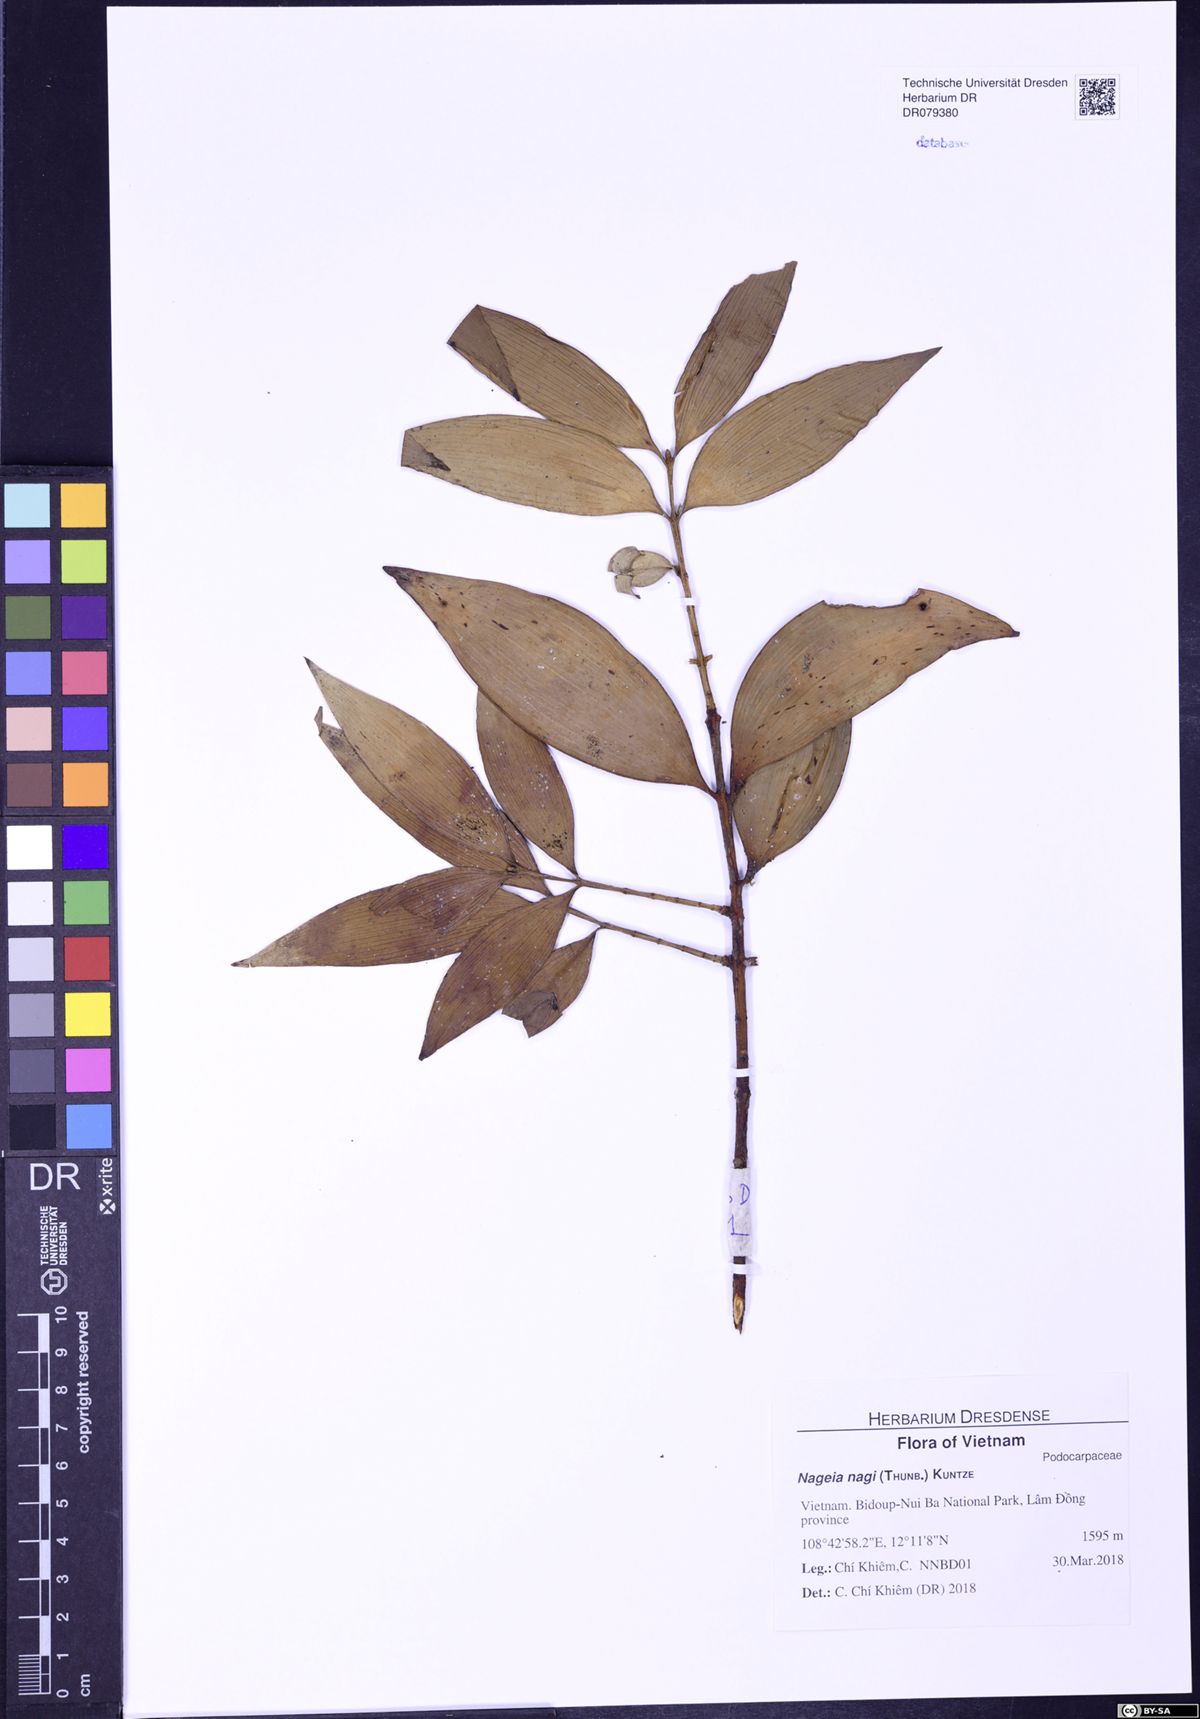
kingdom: Plantae
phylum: Tracheophyta
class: Pinopsida
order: Pinales
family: Podocarpaceae
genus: Nageia
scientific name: Nageia nagi
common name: Kaphal
